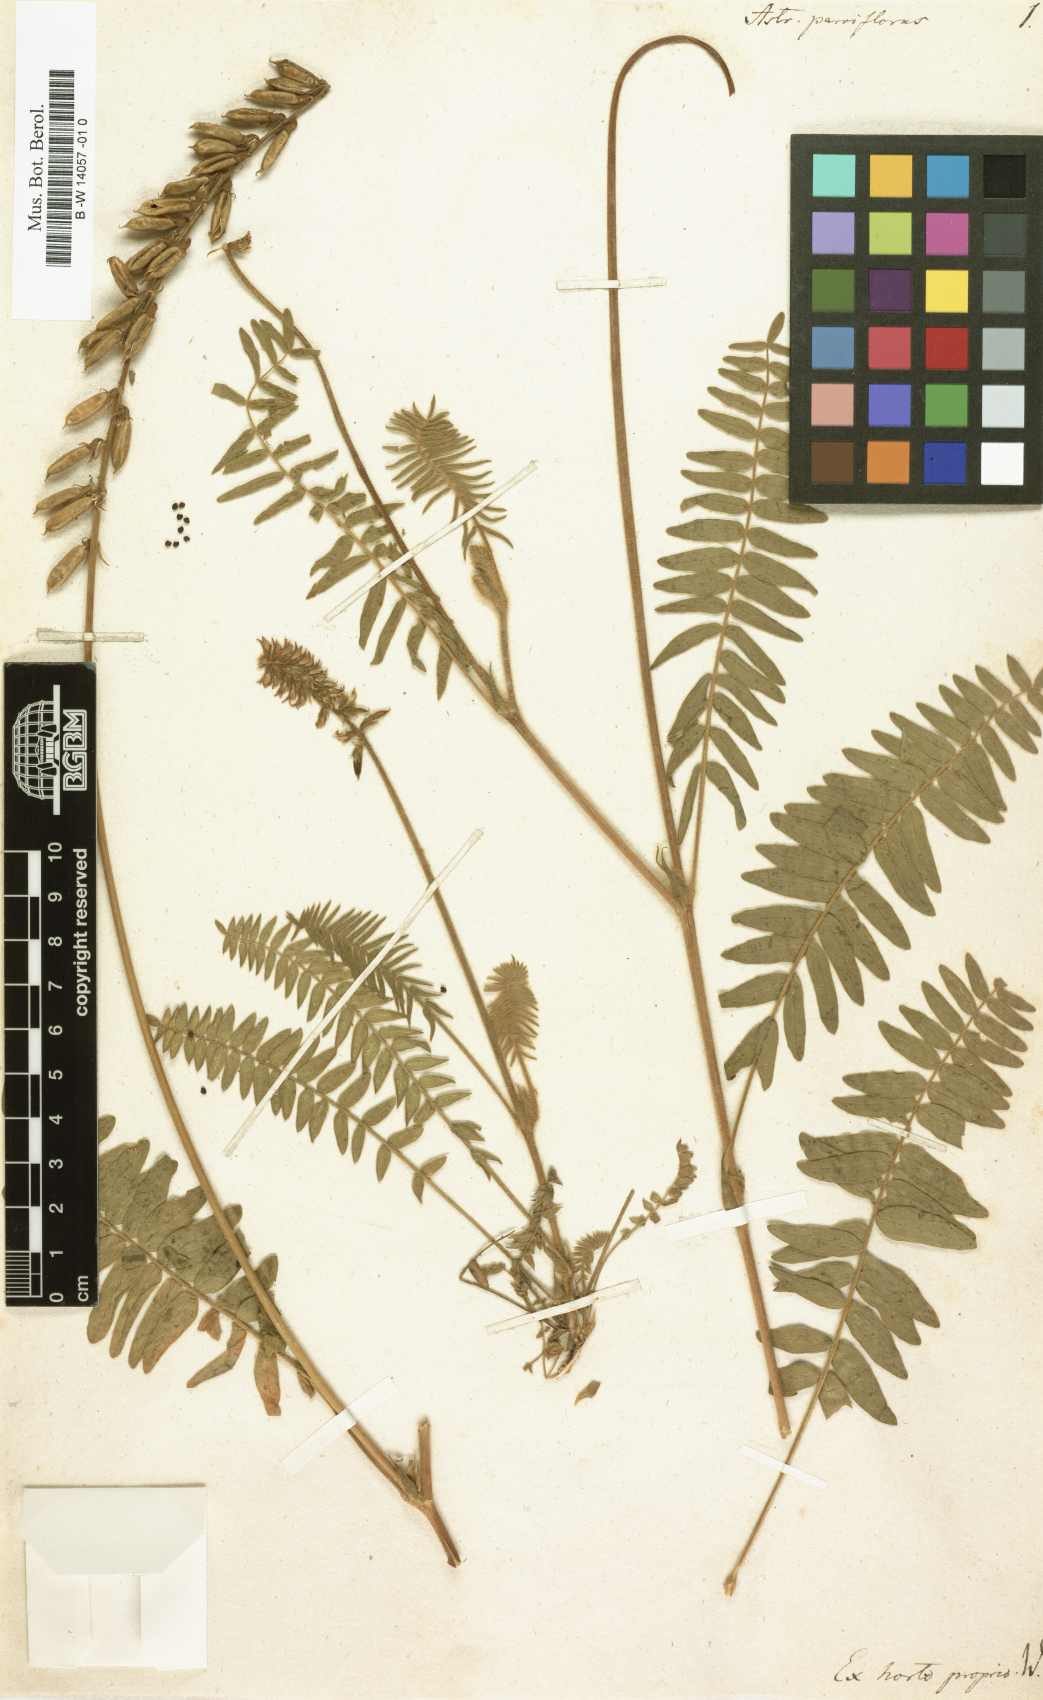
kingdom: Plantae
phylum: Tracheophyta
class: Magnoliopsida
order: Fabales
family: Fabaceae
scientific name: Fabaceae
